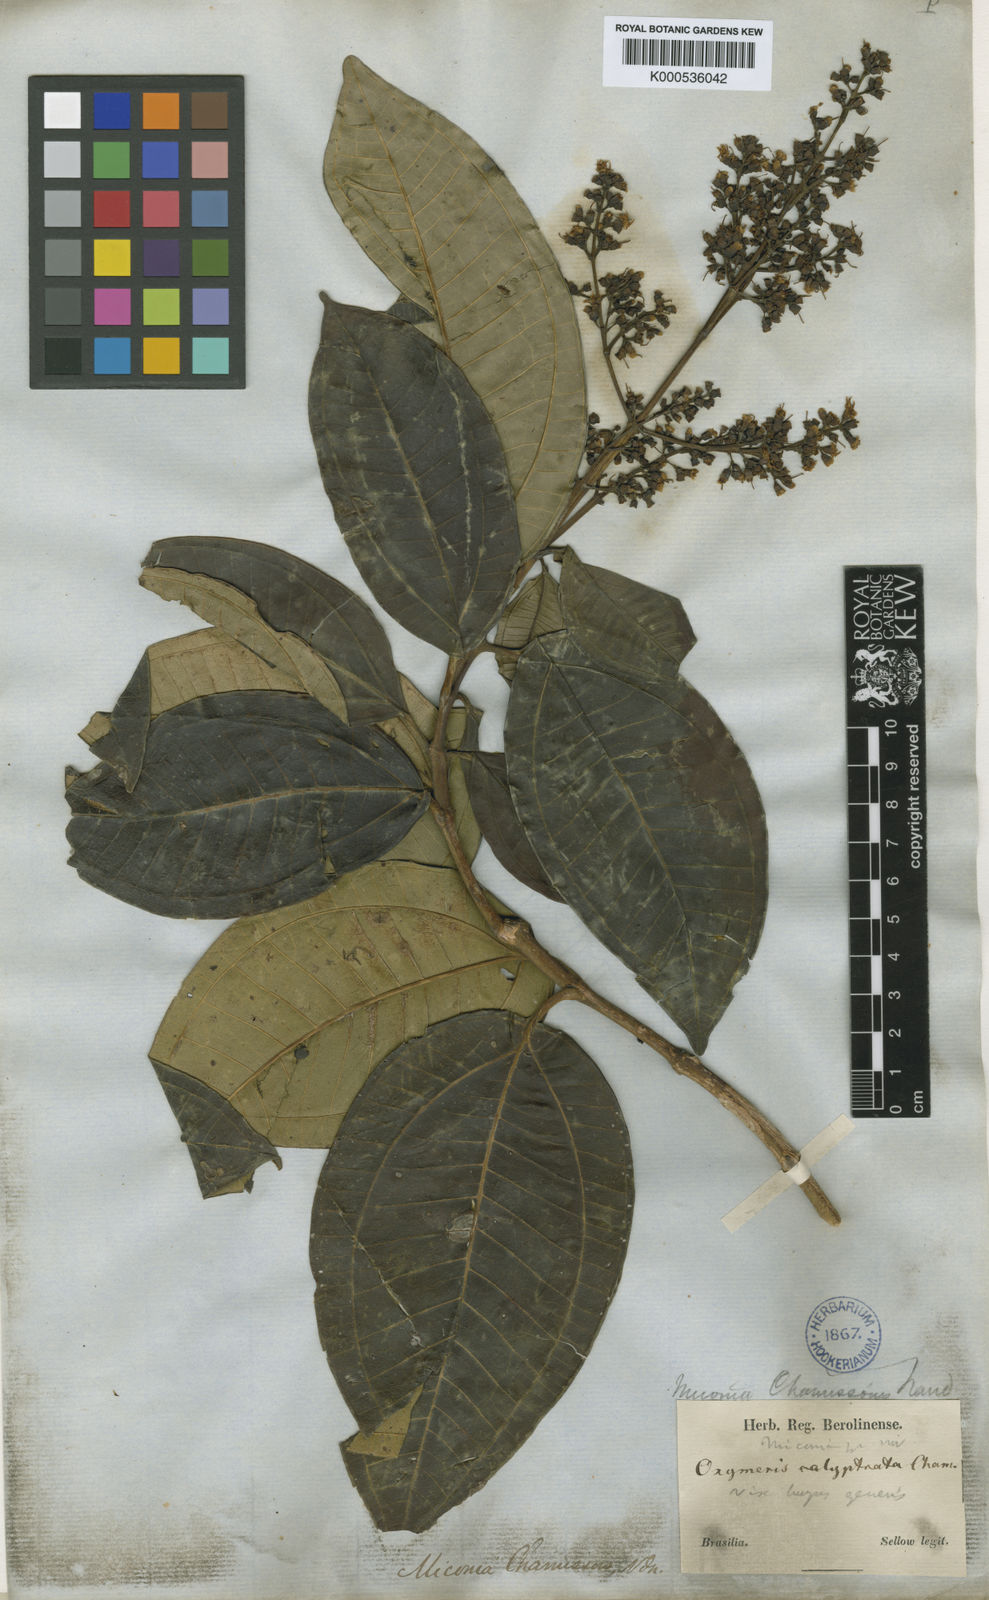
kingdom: Plantae
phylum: Tracheophyta
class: Magnoliopsida
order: Myrtales
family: Melastomataceae
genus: Miconia
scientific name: Miconia chamissois
